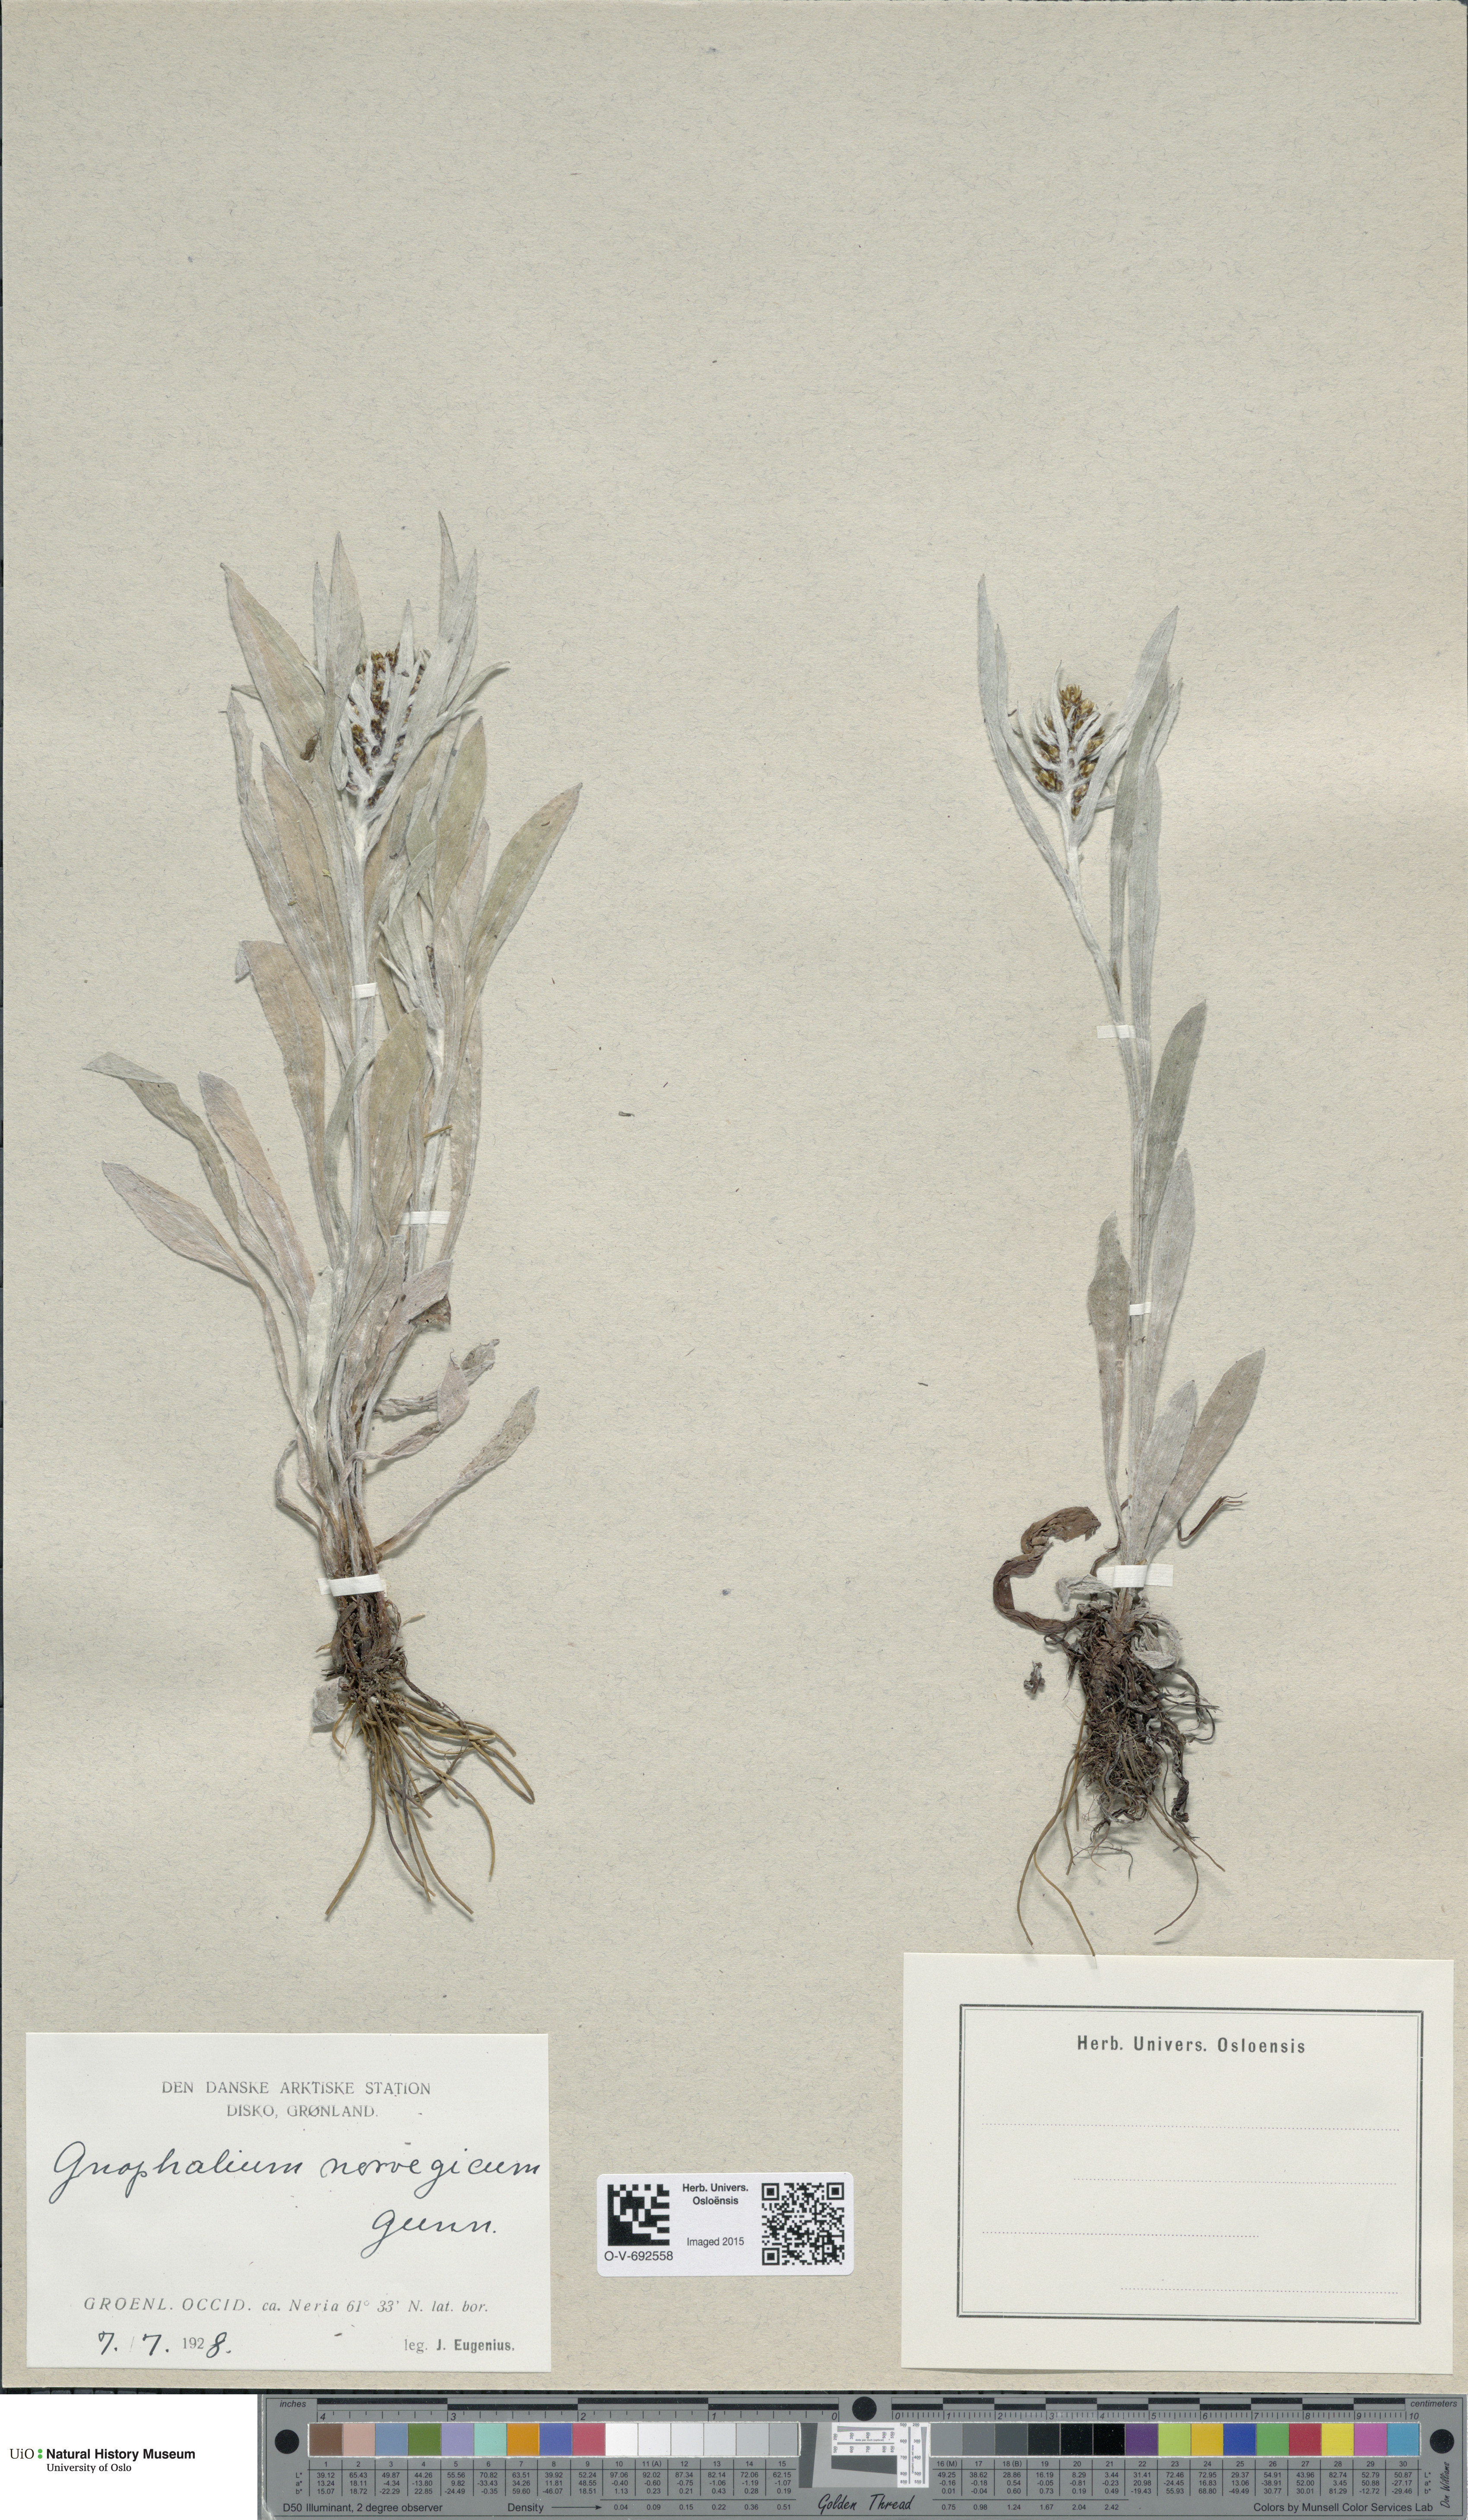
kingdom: Plantae
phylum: Tracheophyta
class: Magnoliopsida
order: Asterales
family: Asteraceae
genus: Omalotheca
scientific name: Omalotheca norvegica
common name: Norwegian arctic-cudweed
